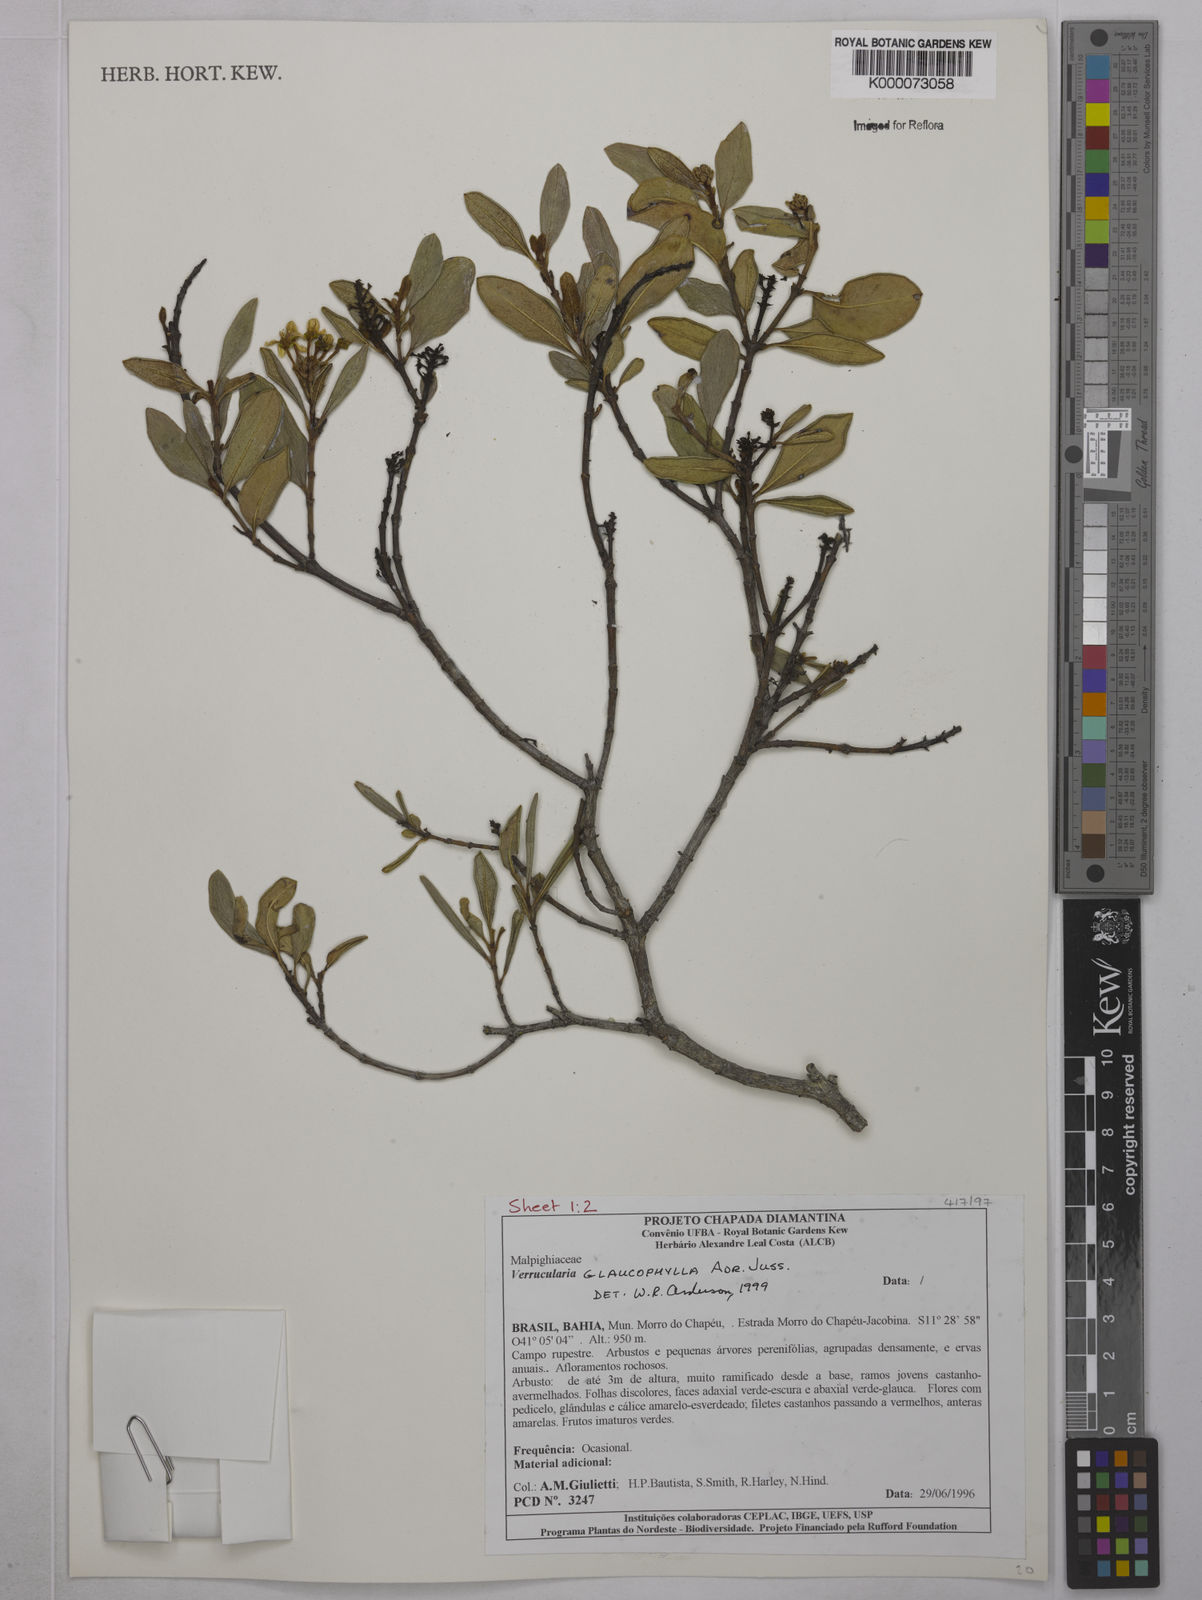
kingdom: Plantae
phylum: Tracheophyta
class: Magnoliopsida
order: Malpighiales
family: Malpighiaceae
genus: Verrucularina
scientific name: Verrucularina glaucophylla
